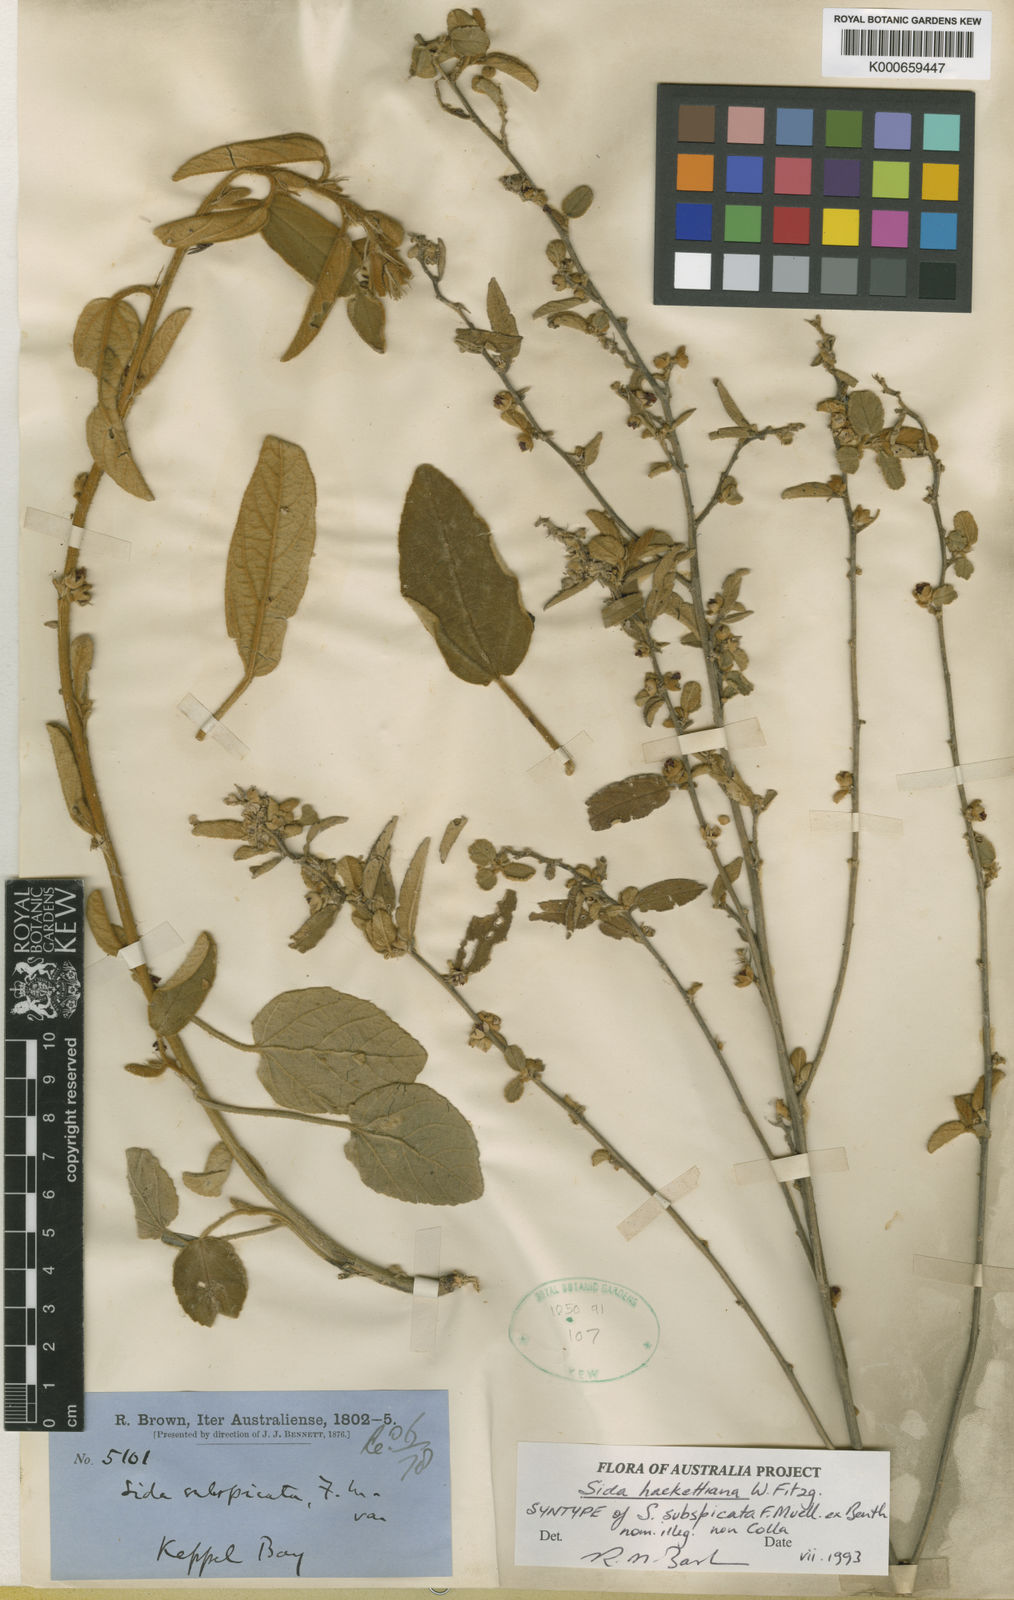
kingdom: Plantae
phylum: Tracheophyta
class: Magnoliopsida
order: Malvales
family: Malvaceae
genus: Sida
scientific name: Sida hackettiana
